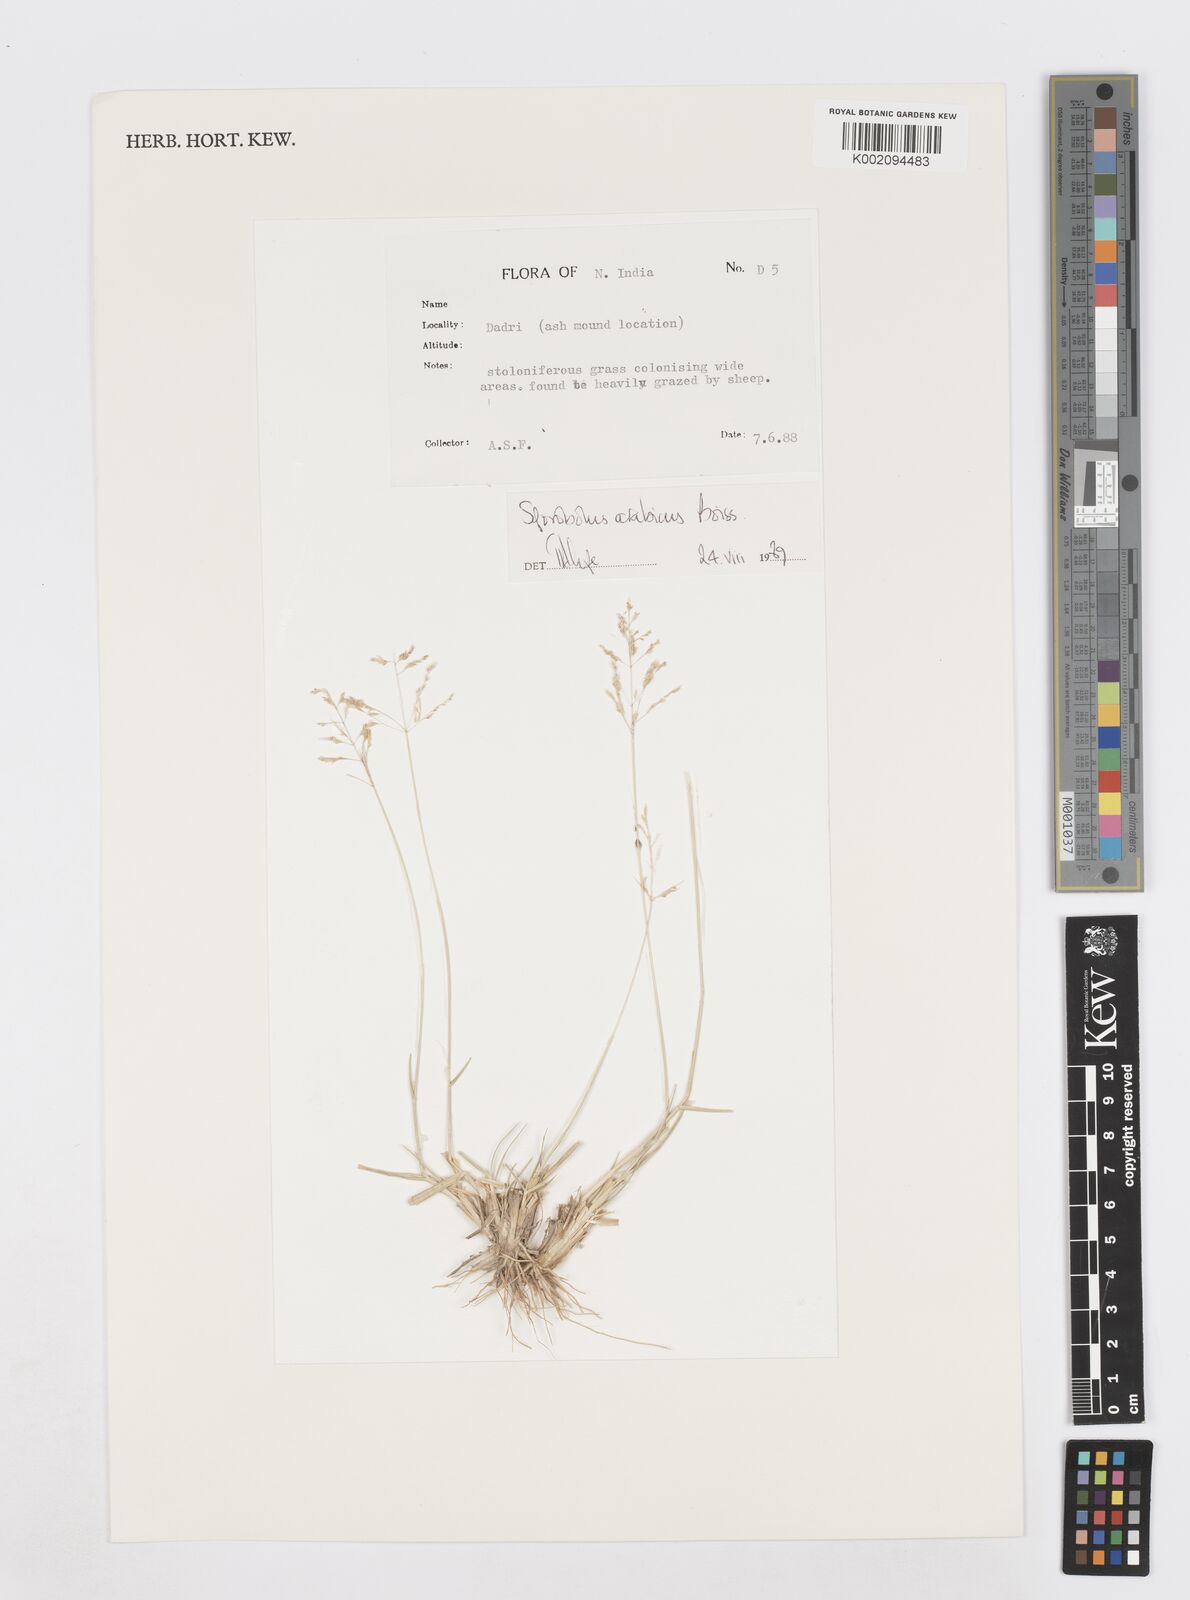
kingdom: Plantae
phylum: Tracheophyta
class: Liliopsida
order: Poales
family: Poaceae
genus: Sporobolus
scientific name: Sporobolus ioclados
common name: Pan dropseed
